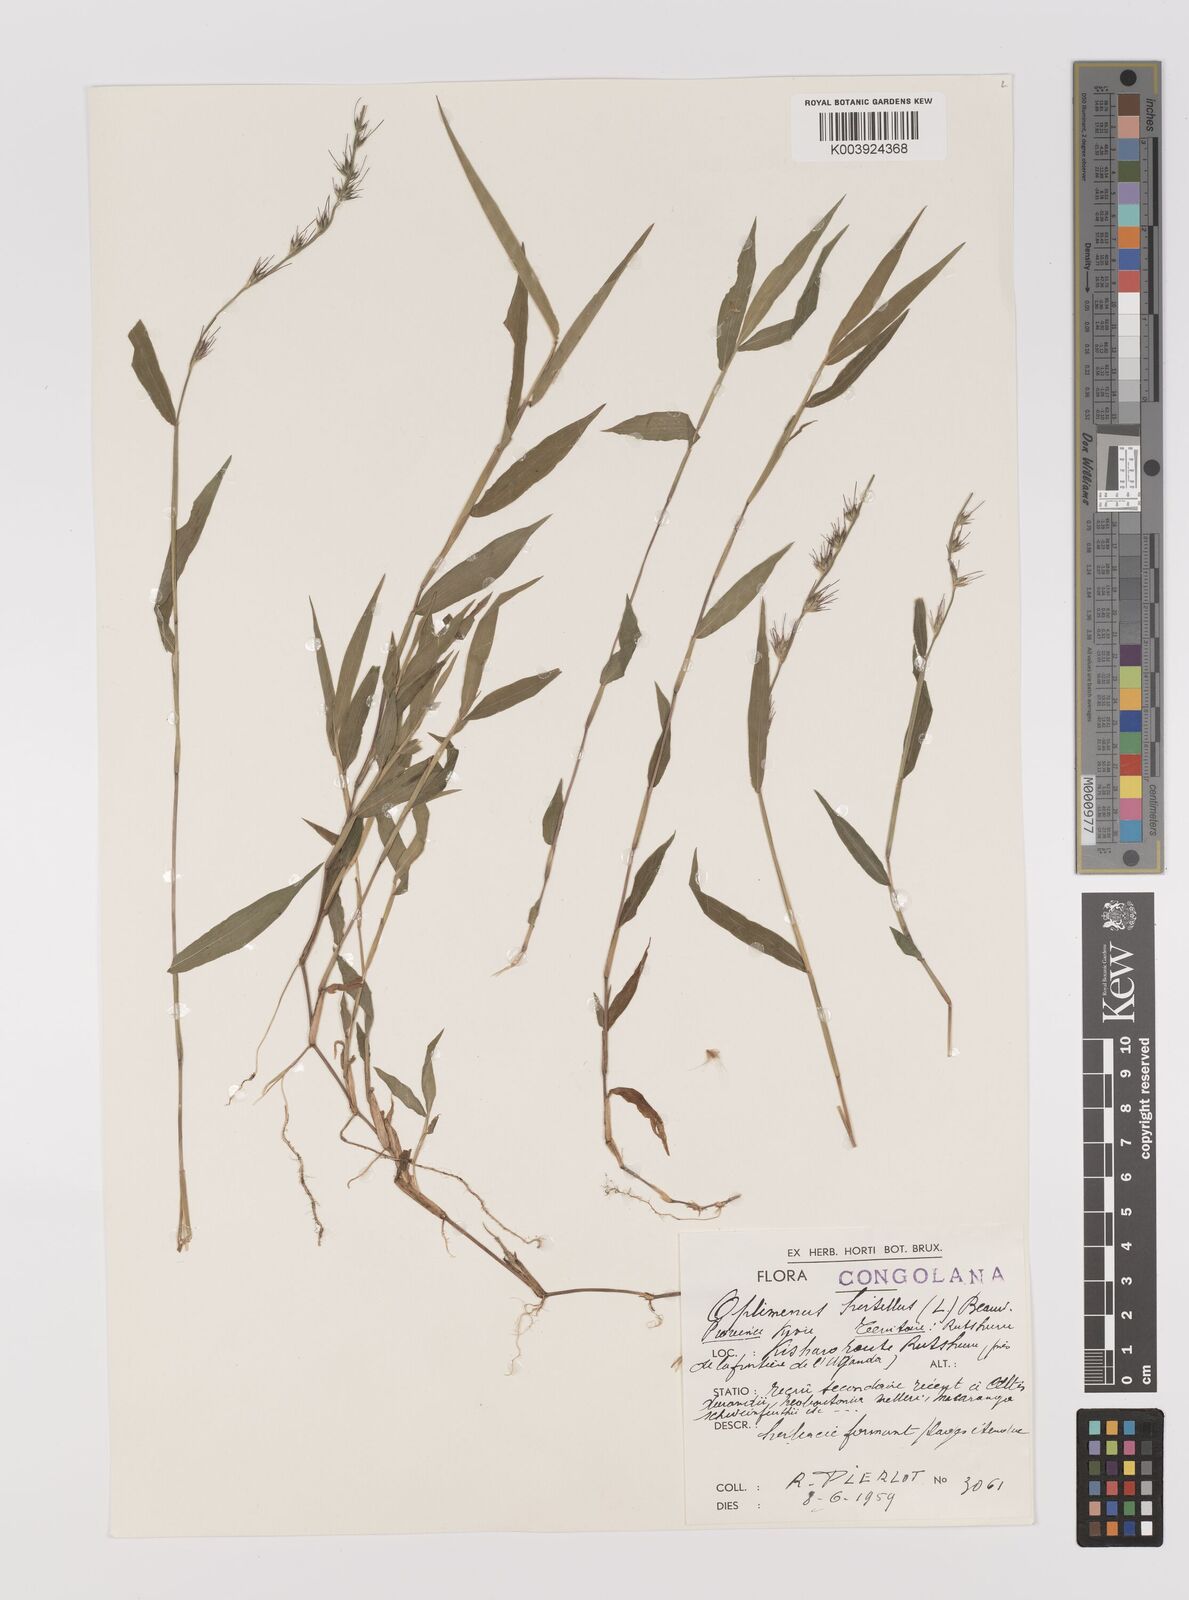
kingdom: Plantae
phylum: Tracheophyta
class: Liliopsida
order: Poales
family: Poaceae
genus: Oplismenus
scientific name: Oplismenus hirtellus
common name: Basketgrass
